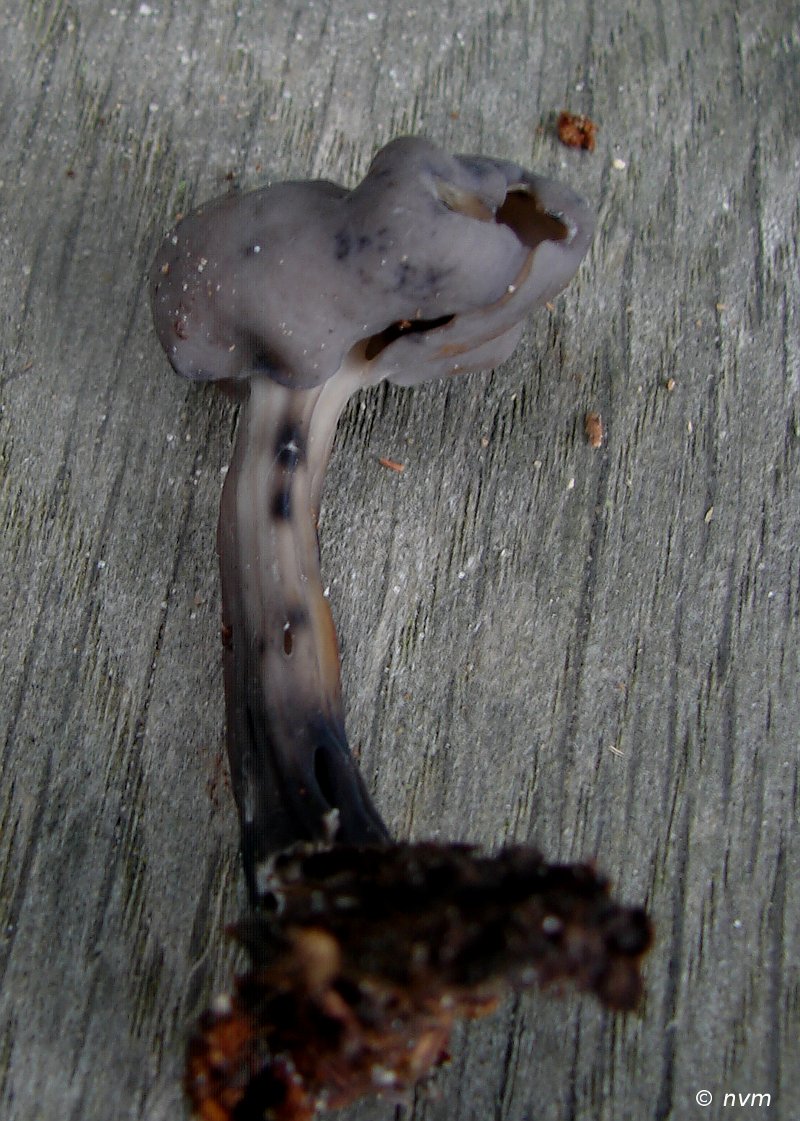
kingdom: Fungi
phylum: Ascomycota
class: Pezizomycetes
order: Pezizales
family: Helvellaceae
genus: Helvella
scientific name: Helvella lacunosa
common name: grubet foldhat
